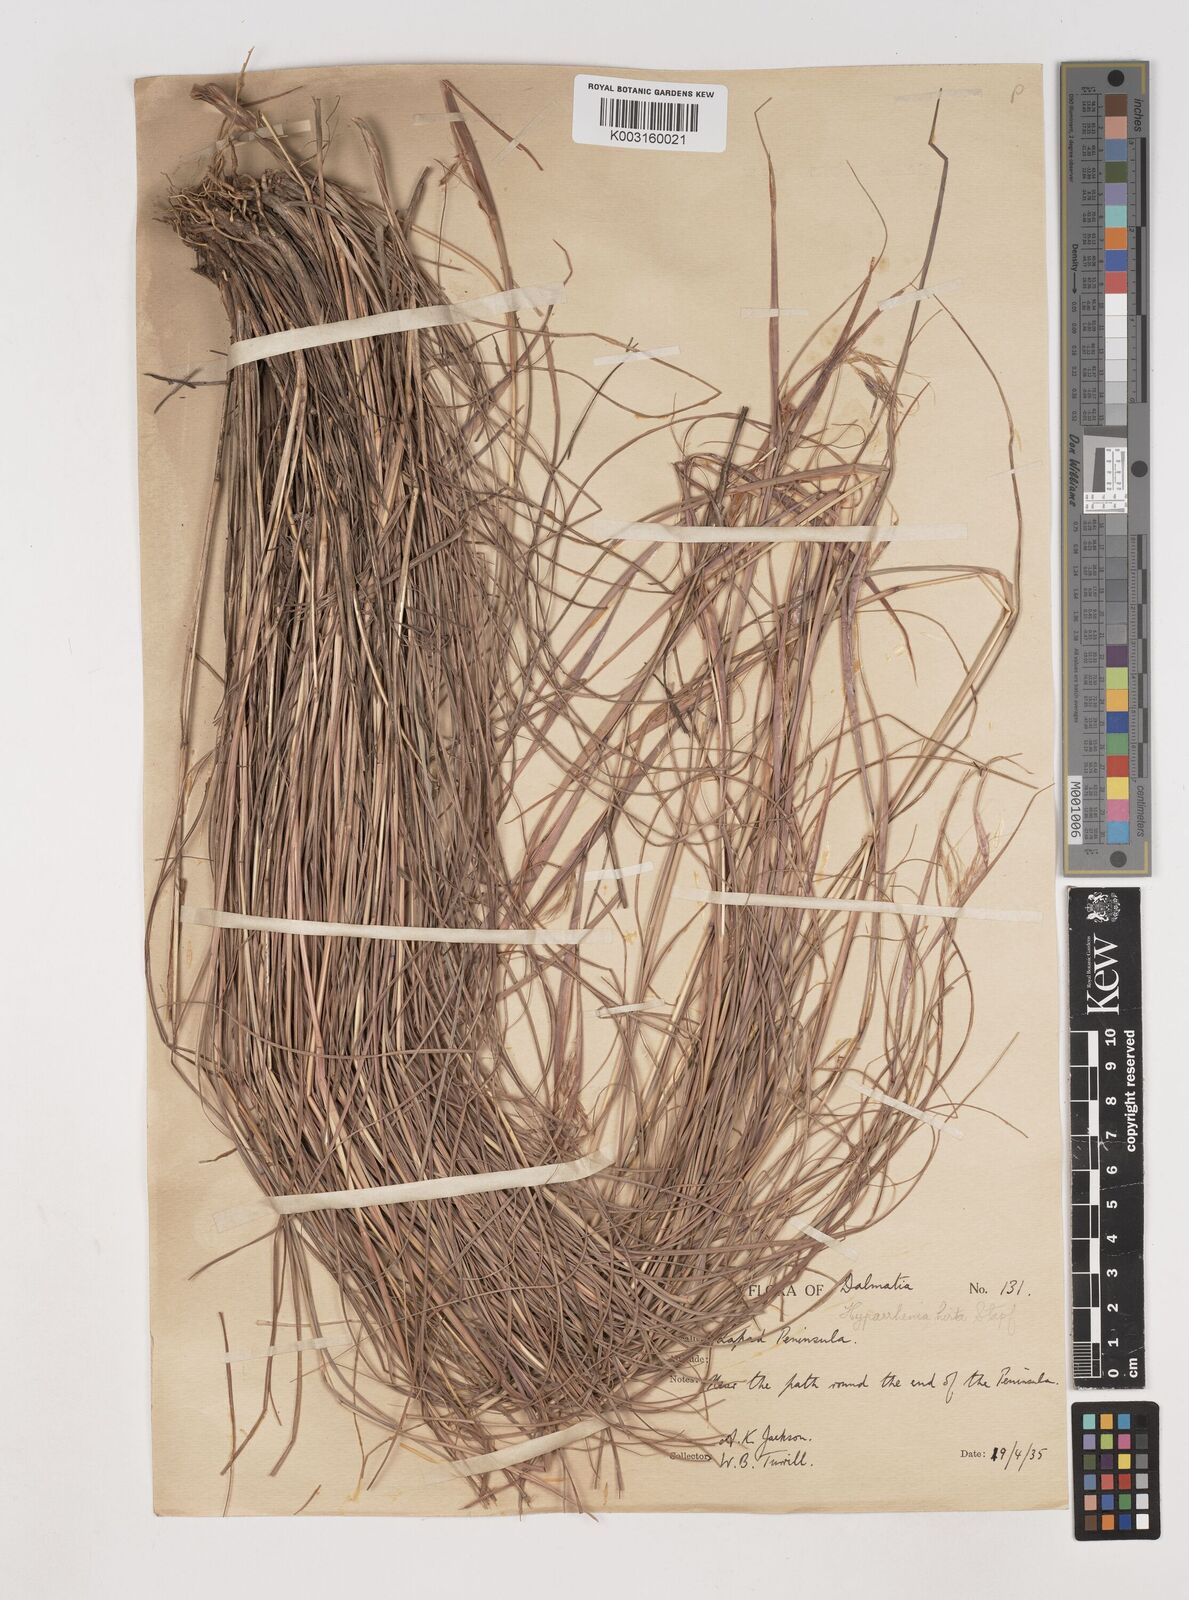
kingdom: Plantae
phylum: Tracheophyta
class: Liliopsida
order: Poales
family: Poaceae
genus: Hyparrhenia
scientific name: Hyparrhenia hirta
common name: Thatching grass
